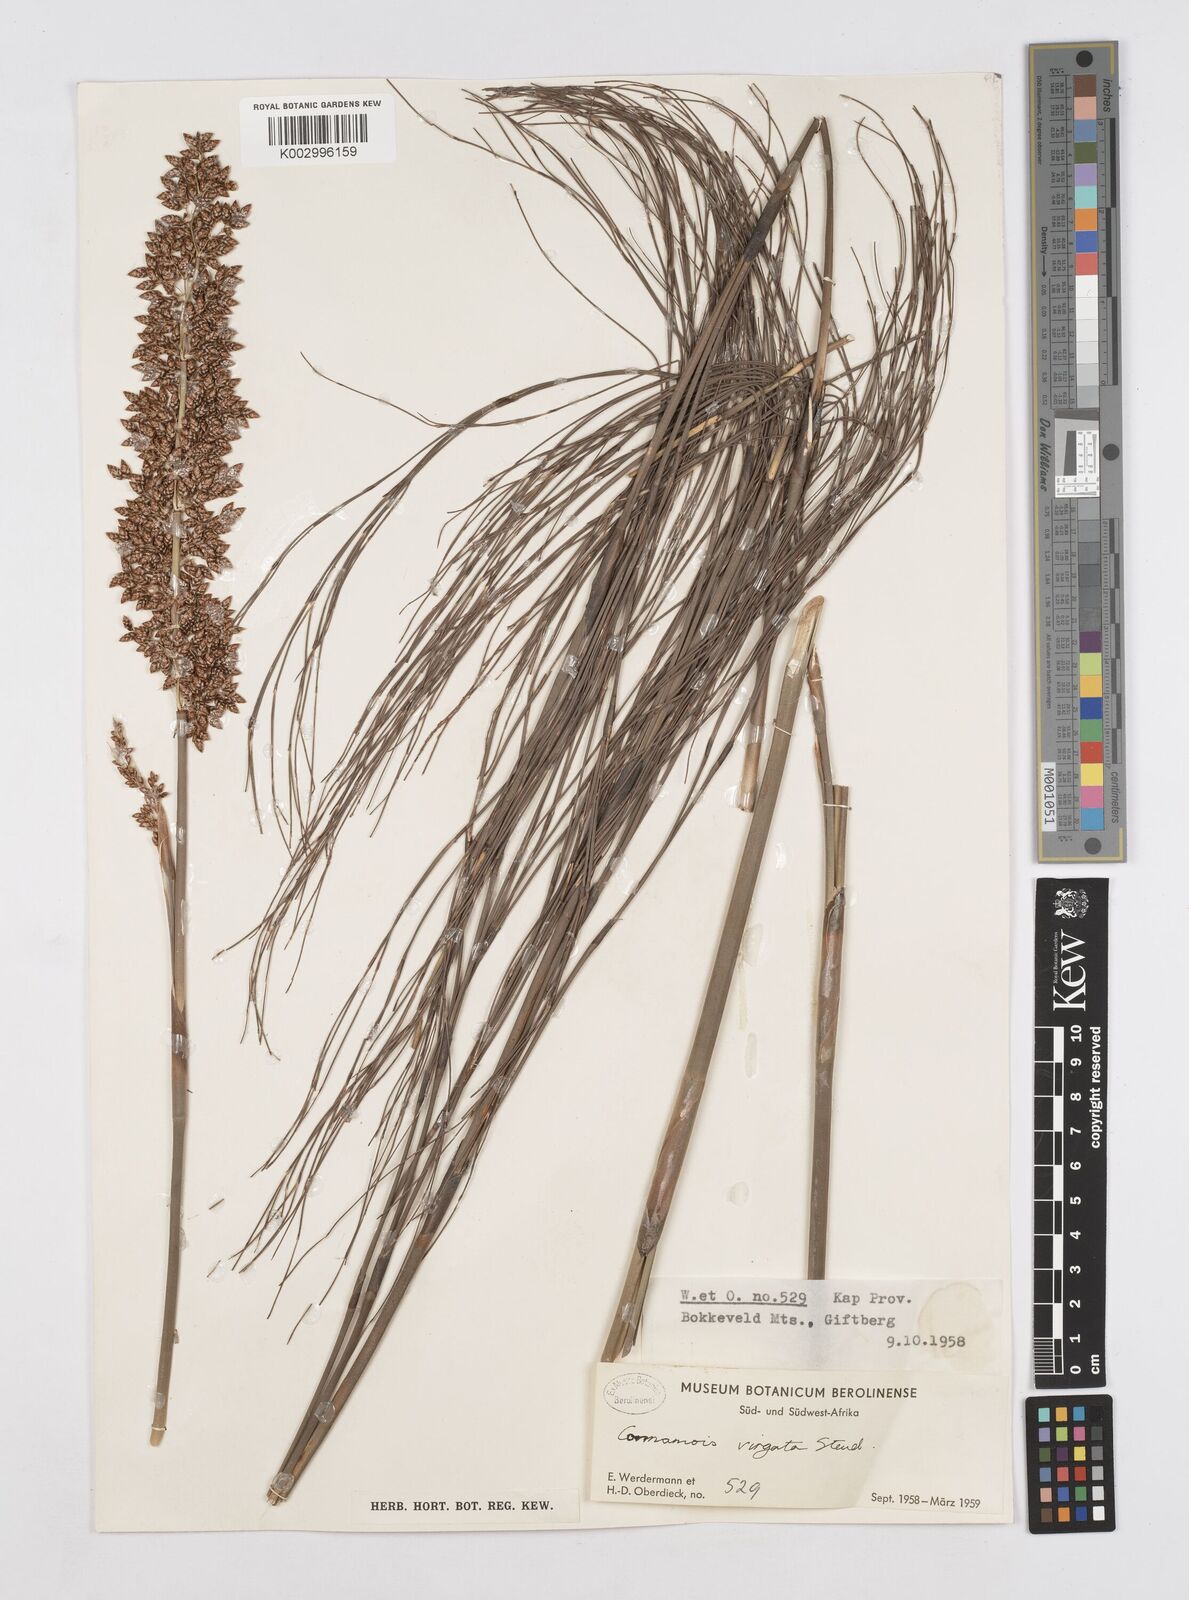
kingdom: Plantae
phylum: Tracheophyta
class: Liliopsida
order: Poales
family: Restionaceae
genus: Cannomois
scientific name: Cannomois virgata
